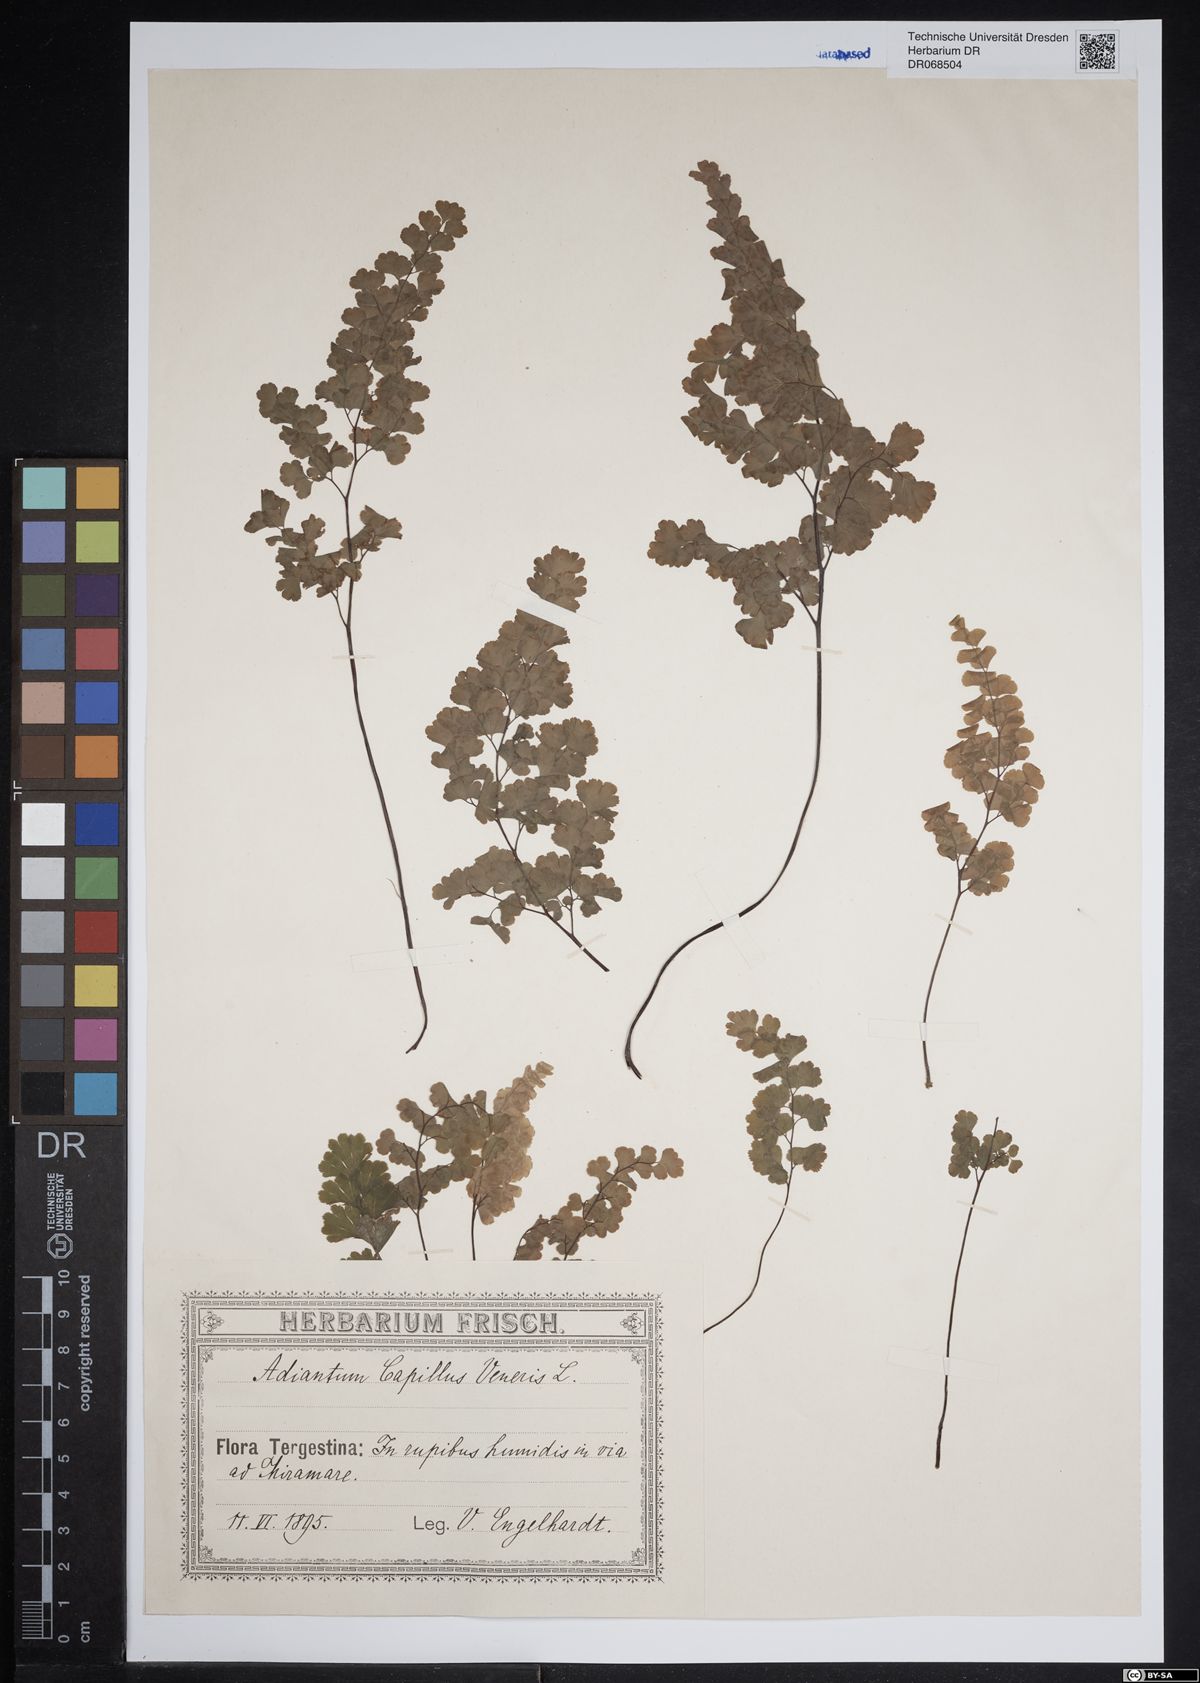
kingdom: Plantae
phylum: Tracheophyta
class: Polypodiopsida
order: Polypodiales
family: Pteridaceae
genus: Adiantum
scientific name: Adiantum capillus-veneris
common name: Maidenhair fern
